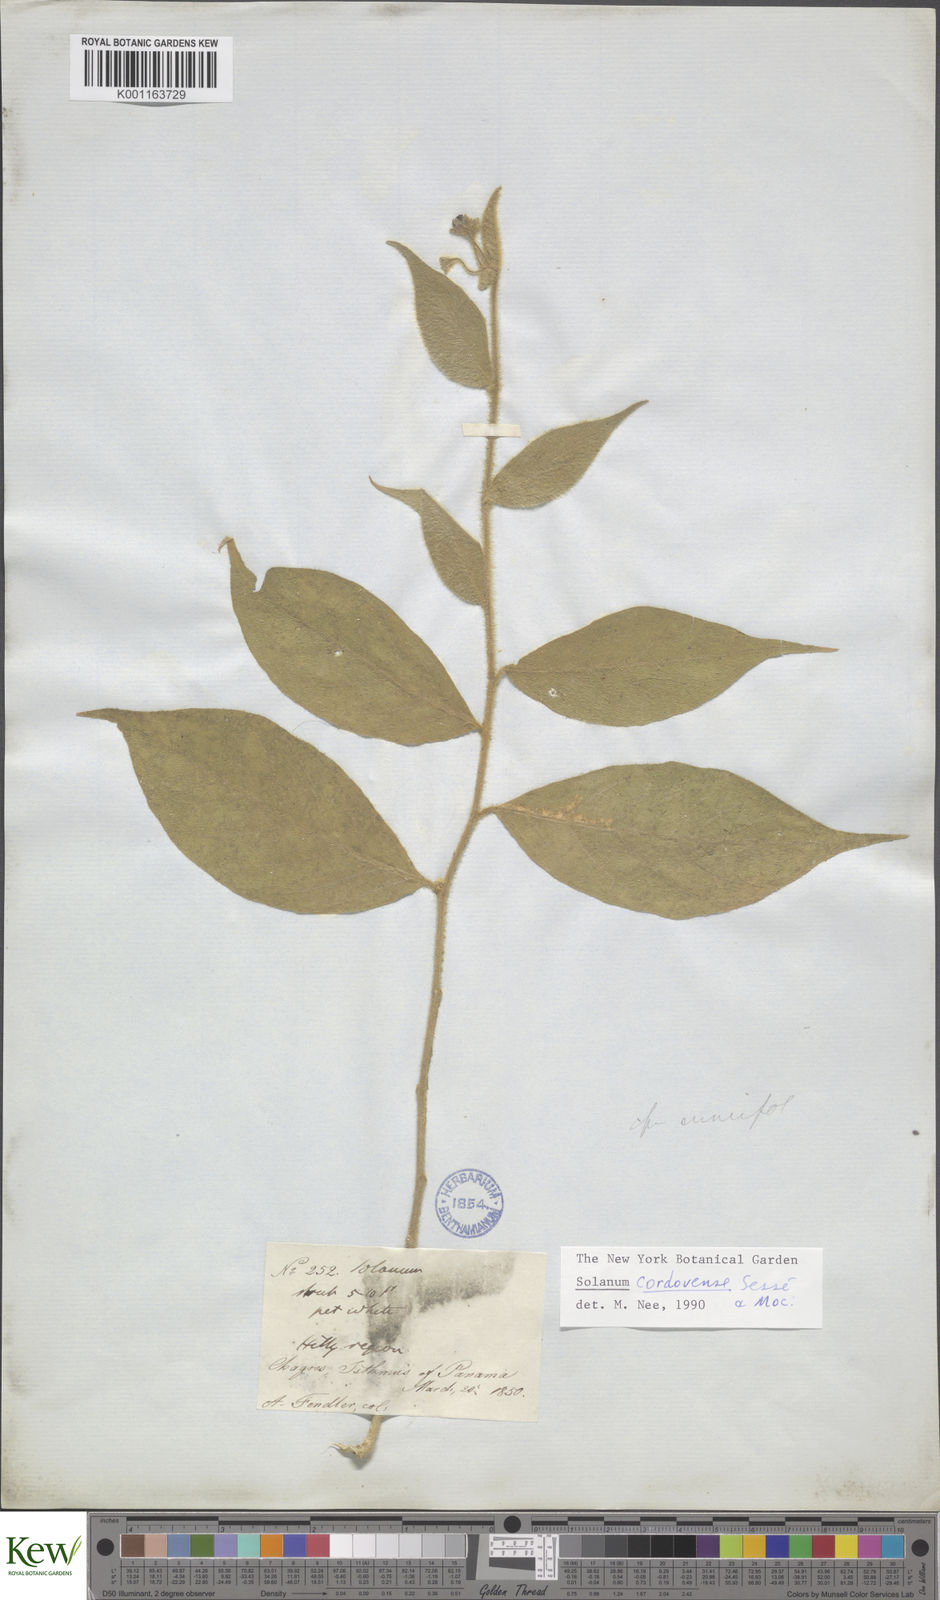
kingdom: Plantae
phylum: Tracheophyta
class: Magnoliopsida
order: Solanales
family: Solanaceae
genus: Solanum
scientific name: Solanum
